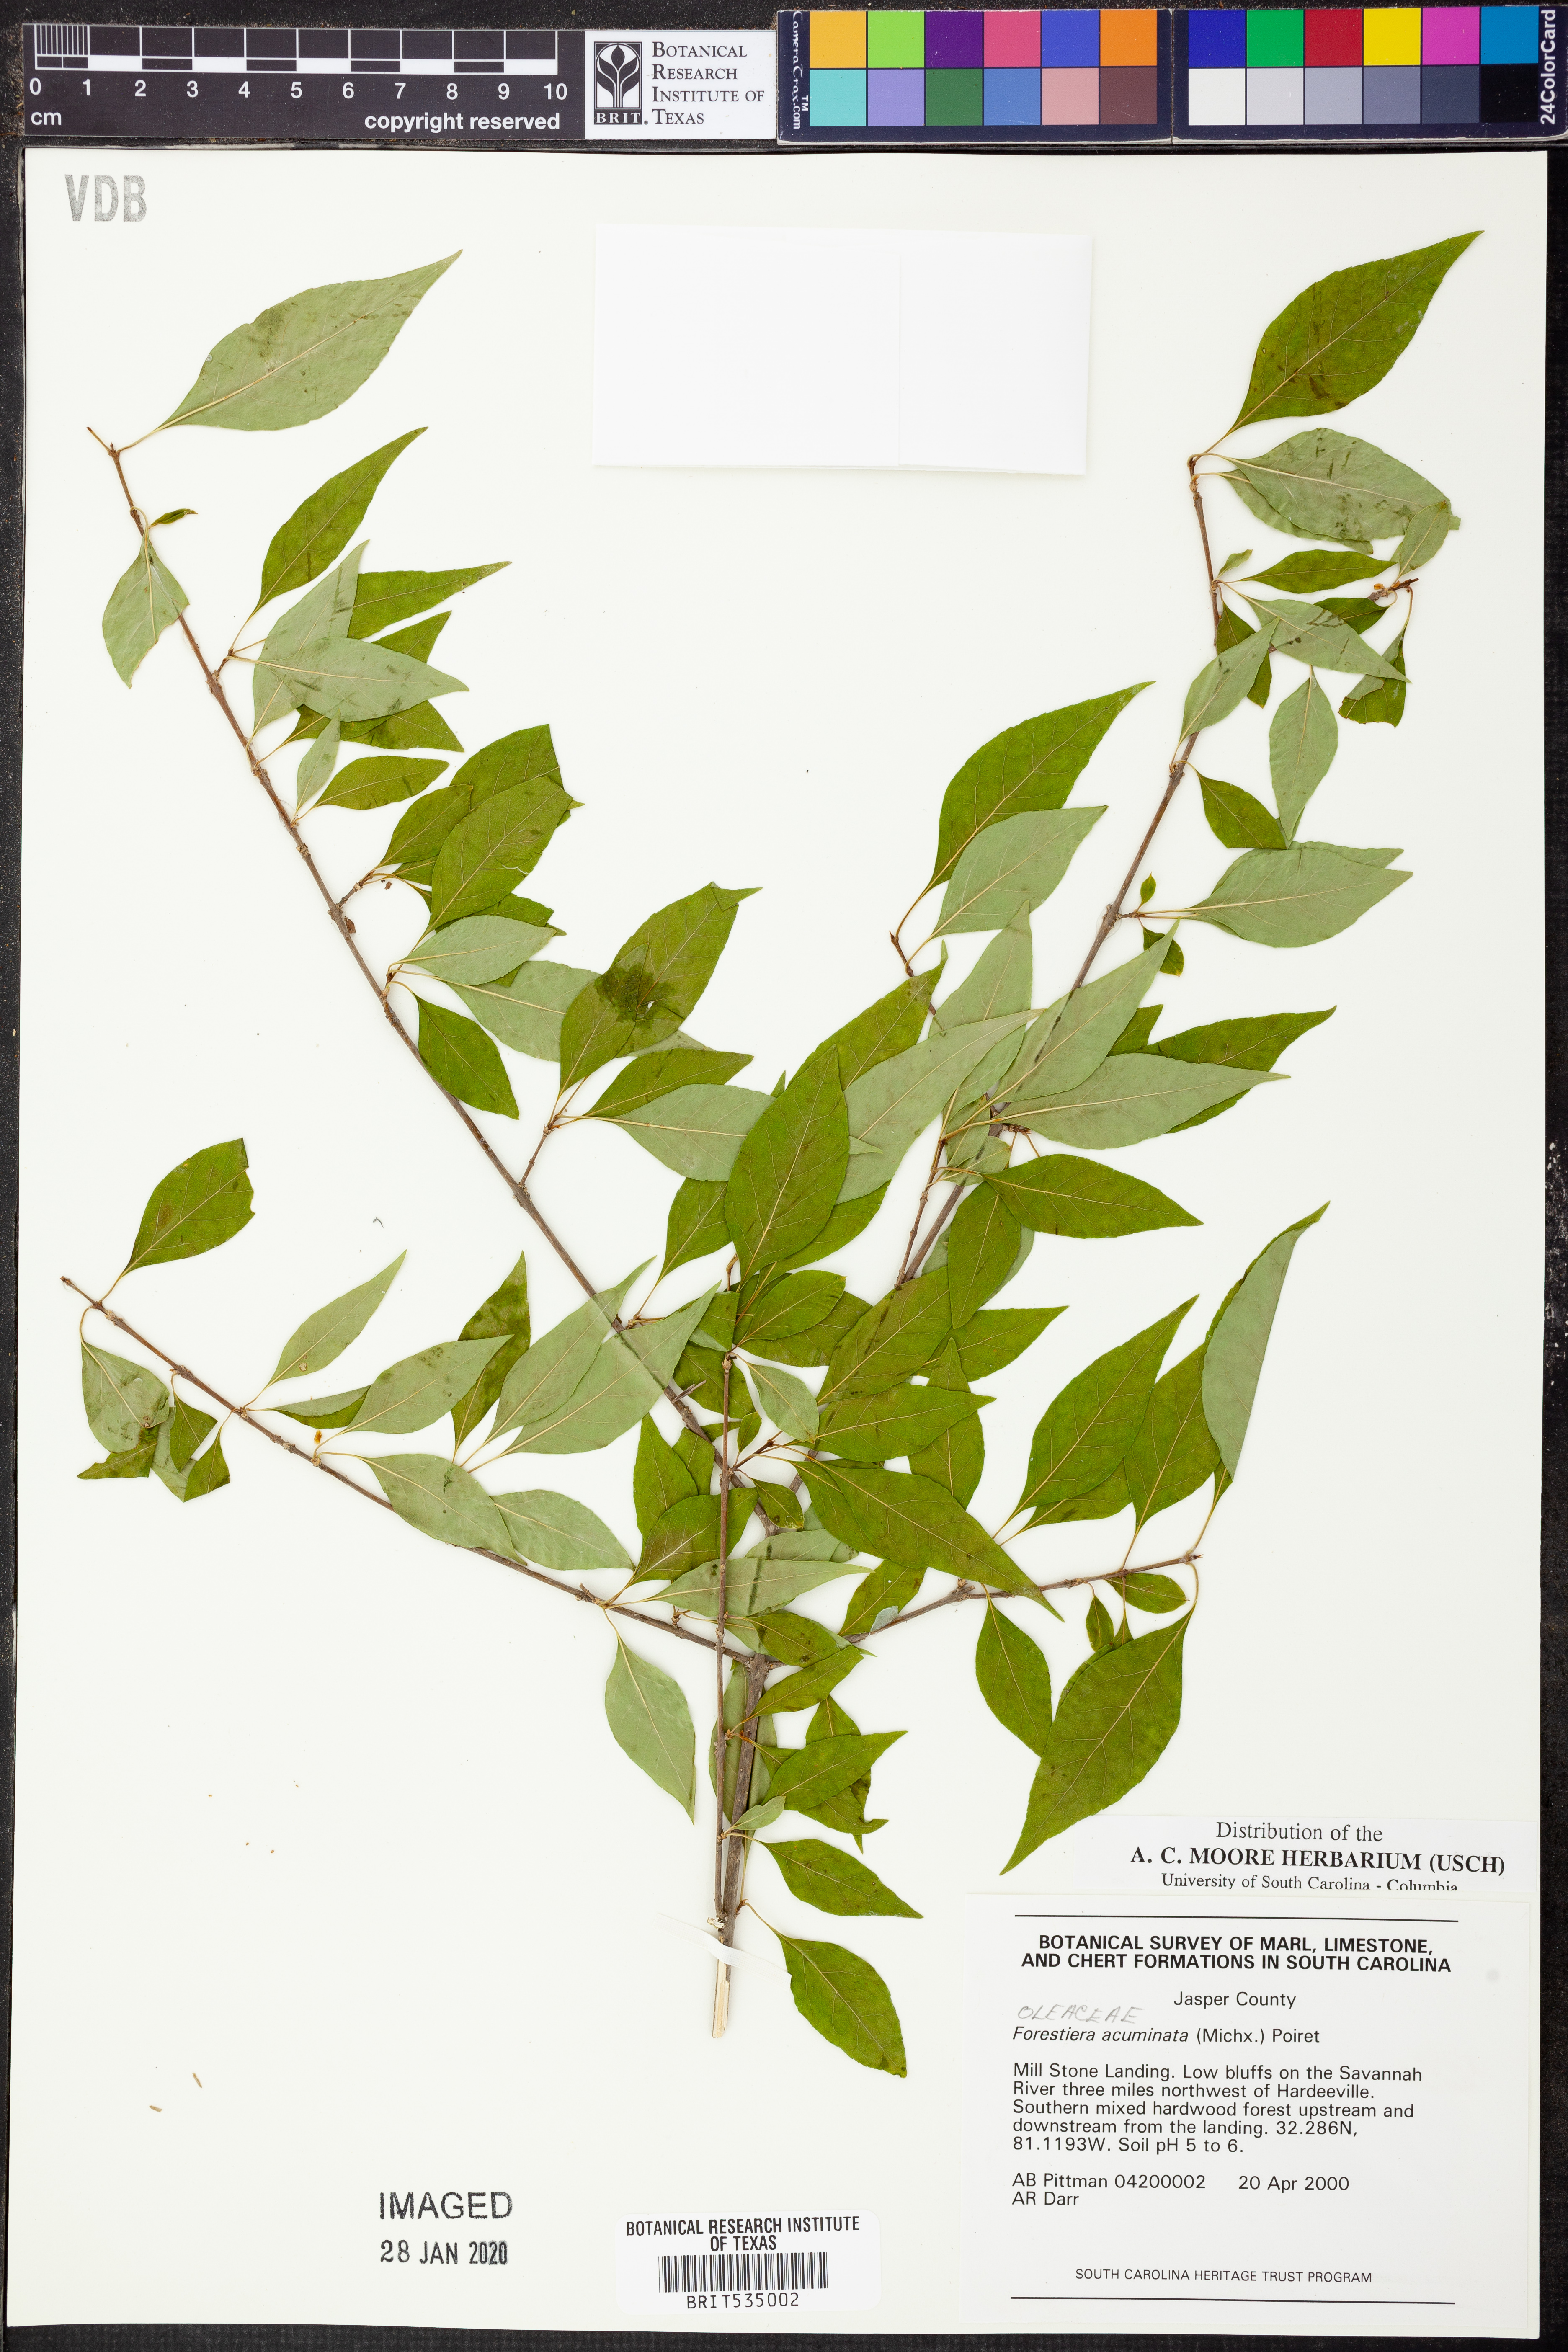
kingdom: Plantae
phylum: Tracheophyta
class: Magnoliopsida
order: Lamiales
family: Oleaceae
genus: Forestiera
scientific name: Forestiera acuminata
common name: Swamp-privet
